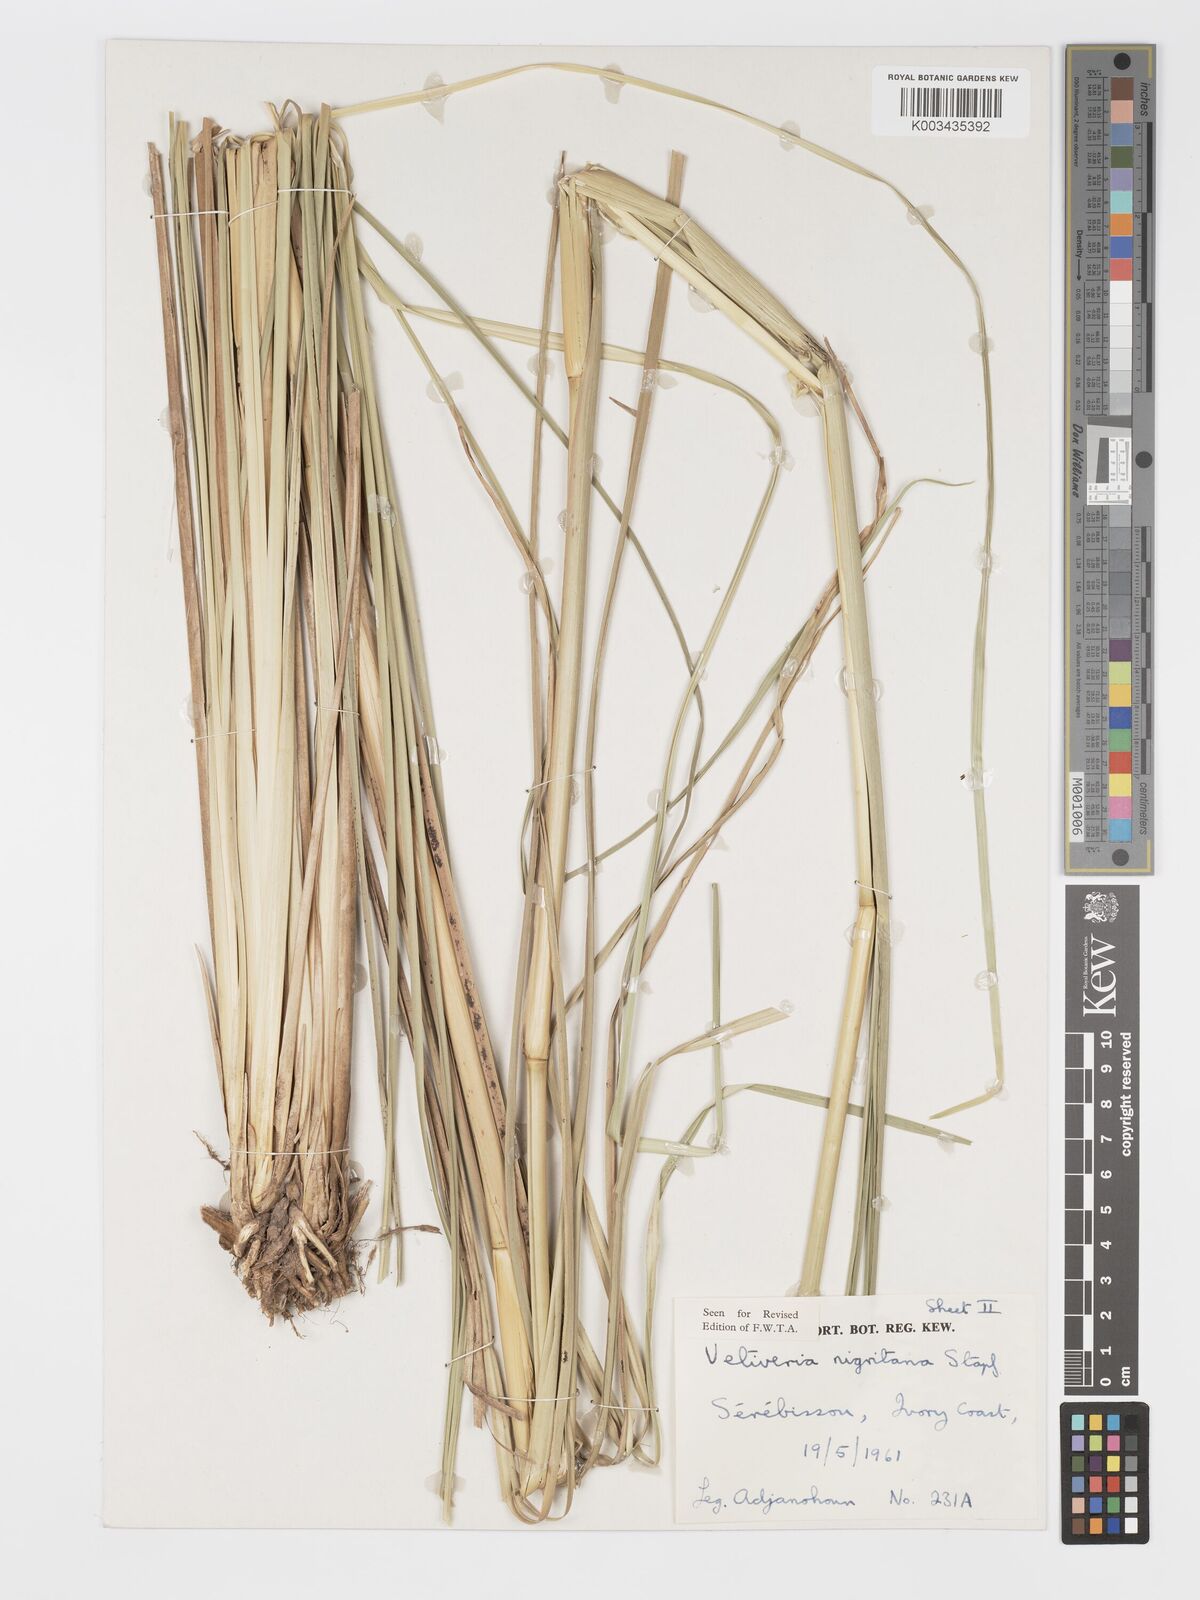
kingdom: Plantae
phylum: Tracheophyta
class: Liliopsida
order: Poales
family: Poaceae
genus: Chrysopogon
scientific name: Chrysopogon nigritanus
